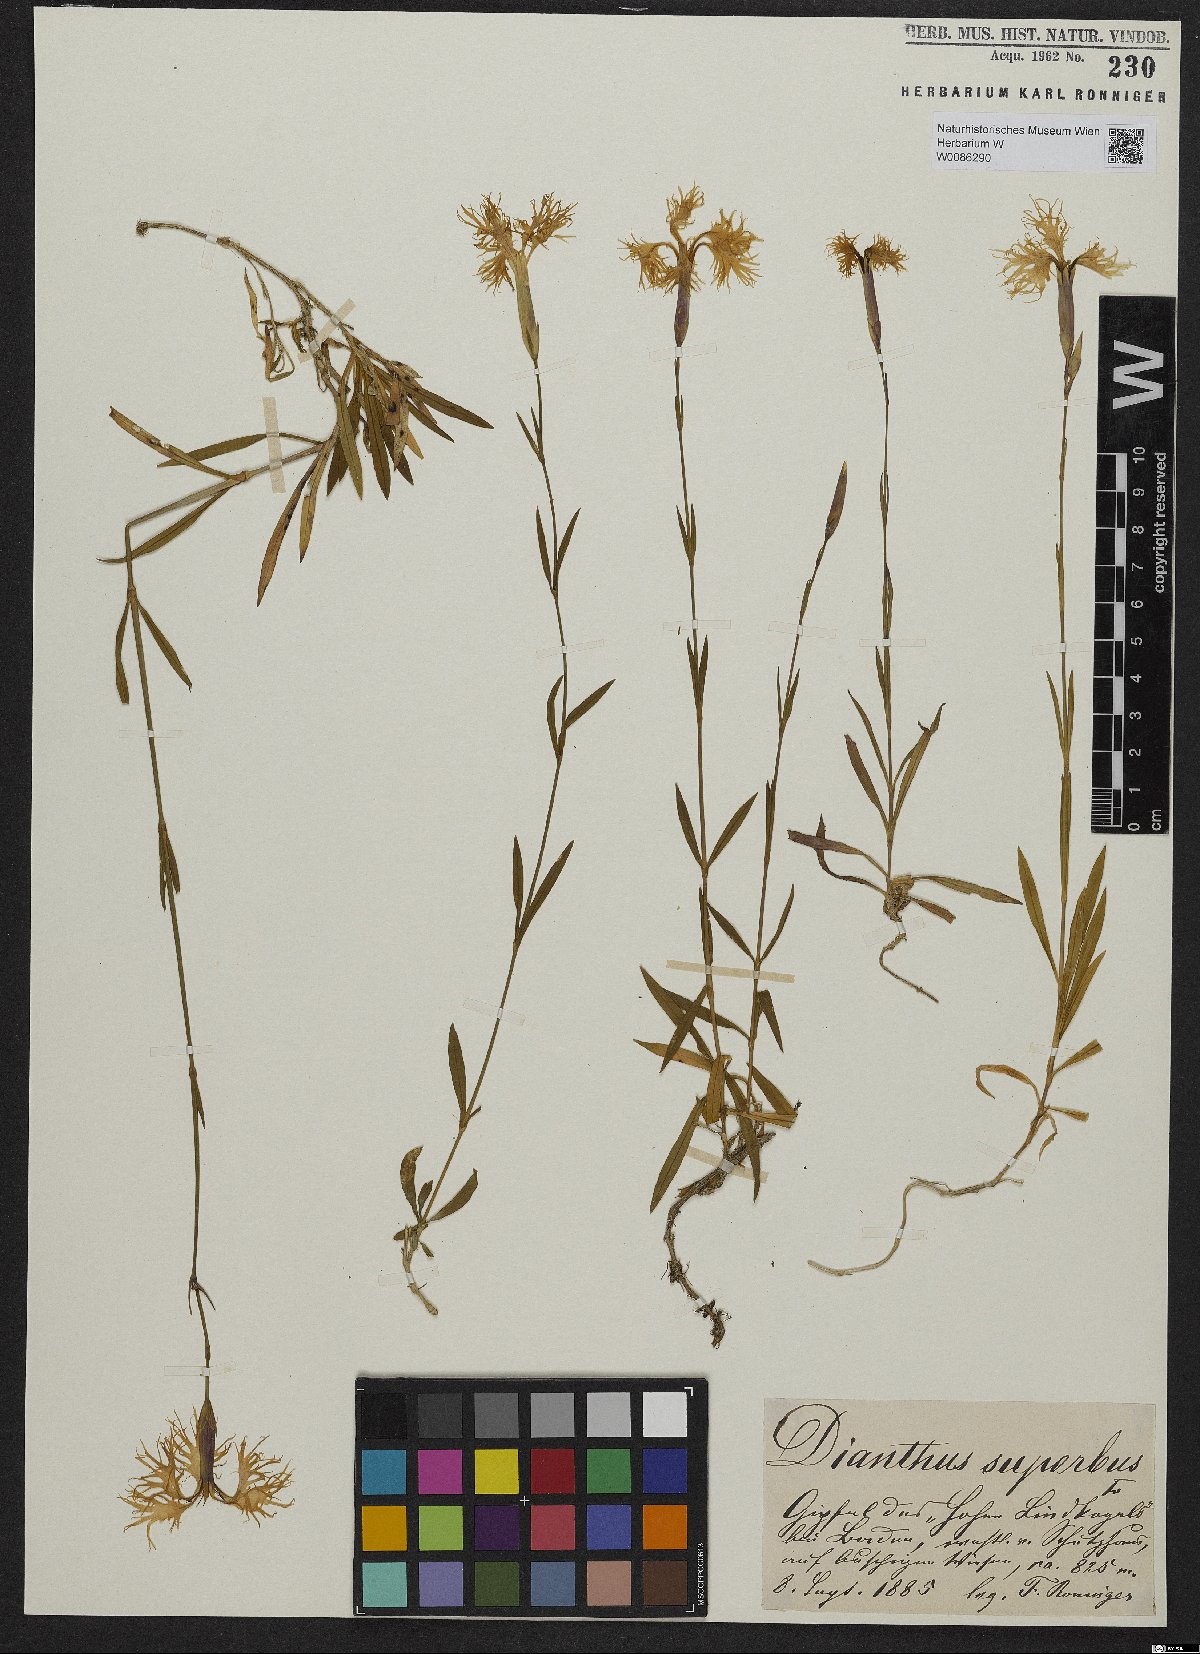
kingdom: Plantae
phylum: Tracheophyta
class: Magnoliopsida
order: Caryophyllales
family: Caryophyllaceae
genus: Dianthus
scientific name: Dianthus superbus
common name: Fringed pink
